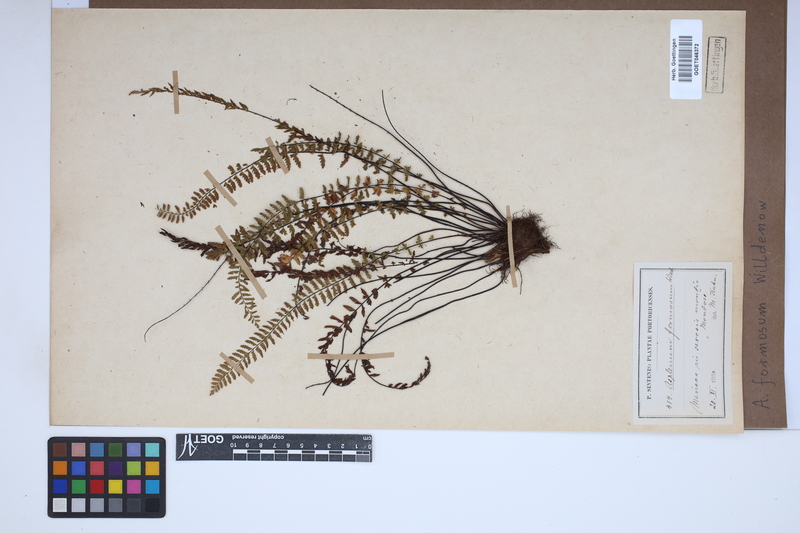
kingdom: Plantae
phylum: Tracheophyta
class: Polypodiopsida
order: Polypodiales
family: Aspleniaceae
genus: Asplenium
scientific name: Asplenium formosum
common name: Showy spleenwort
